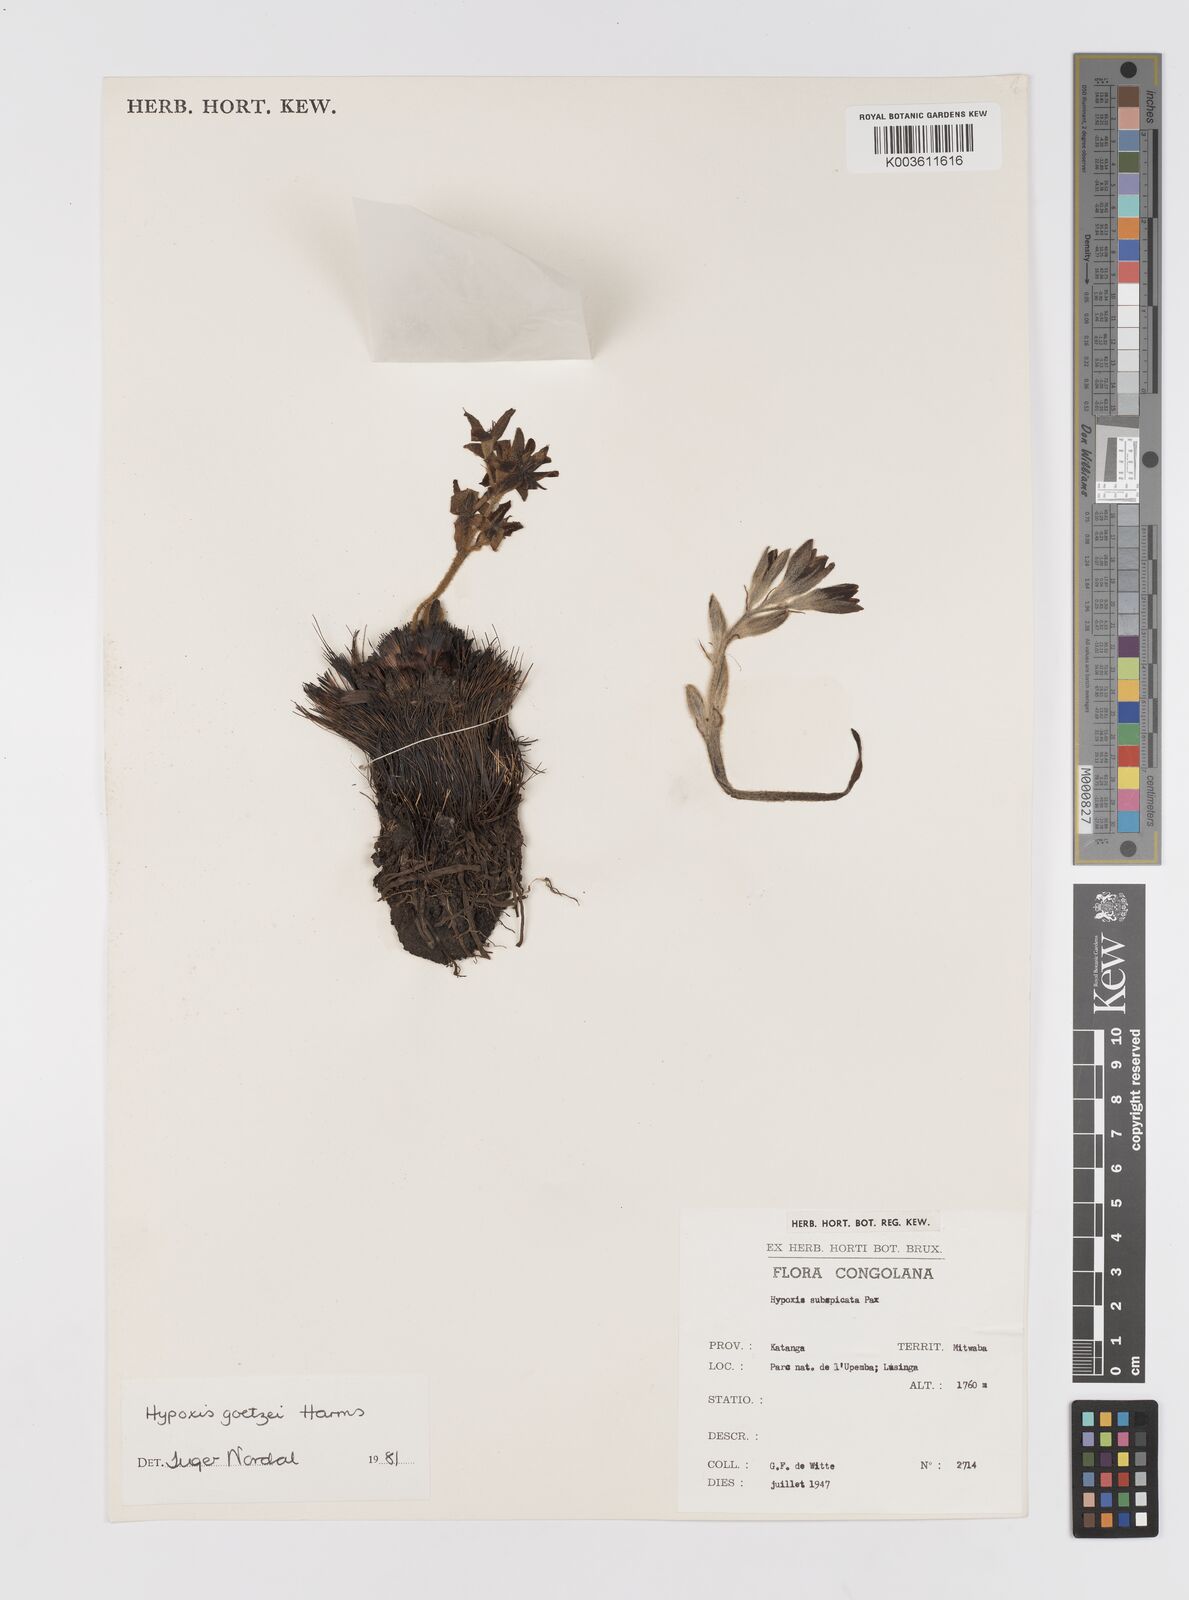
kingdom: Plantae
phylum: Tracheophyta
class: Liliopsida
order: Asparagales
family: Hypoxidaceae
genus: Hypoxis
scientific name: Hypoxis goetzei
